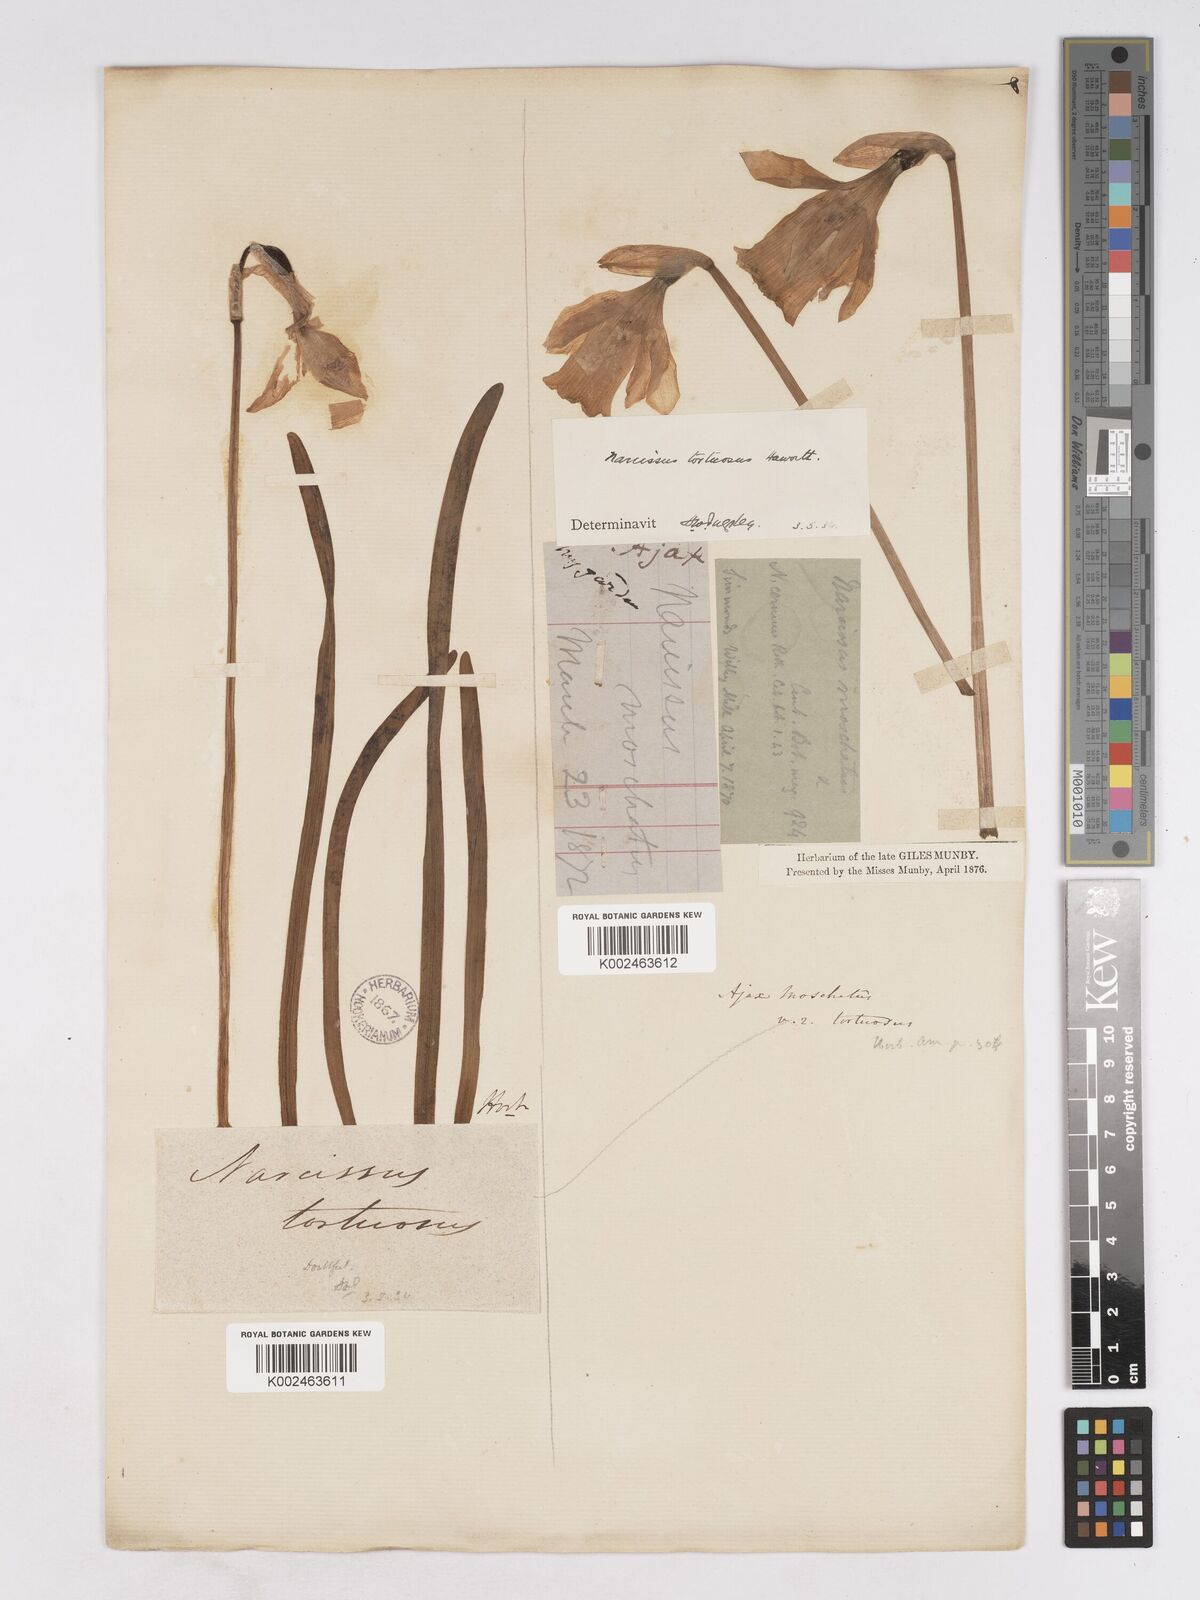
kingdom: Plantae
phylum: Tracheophyta
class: Liliopsida
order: Asparagales
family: Amaryllidaceae
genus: Narcissus
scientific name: Narcissus moschatus
